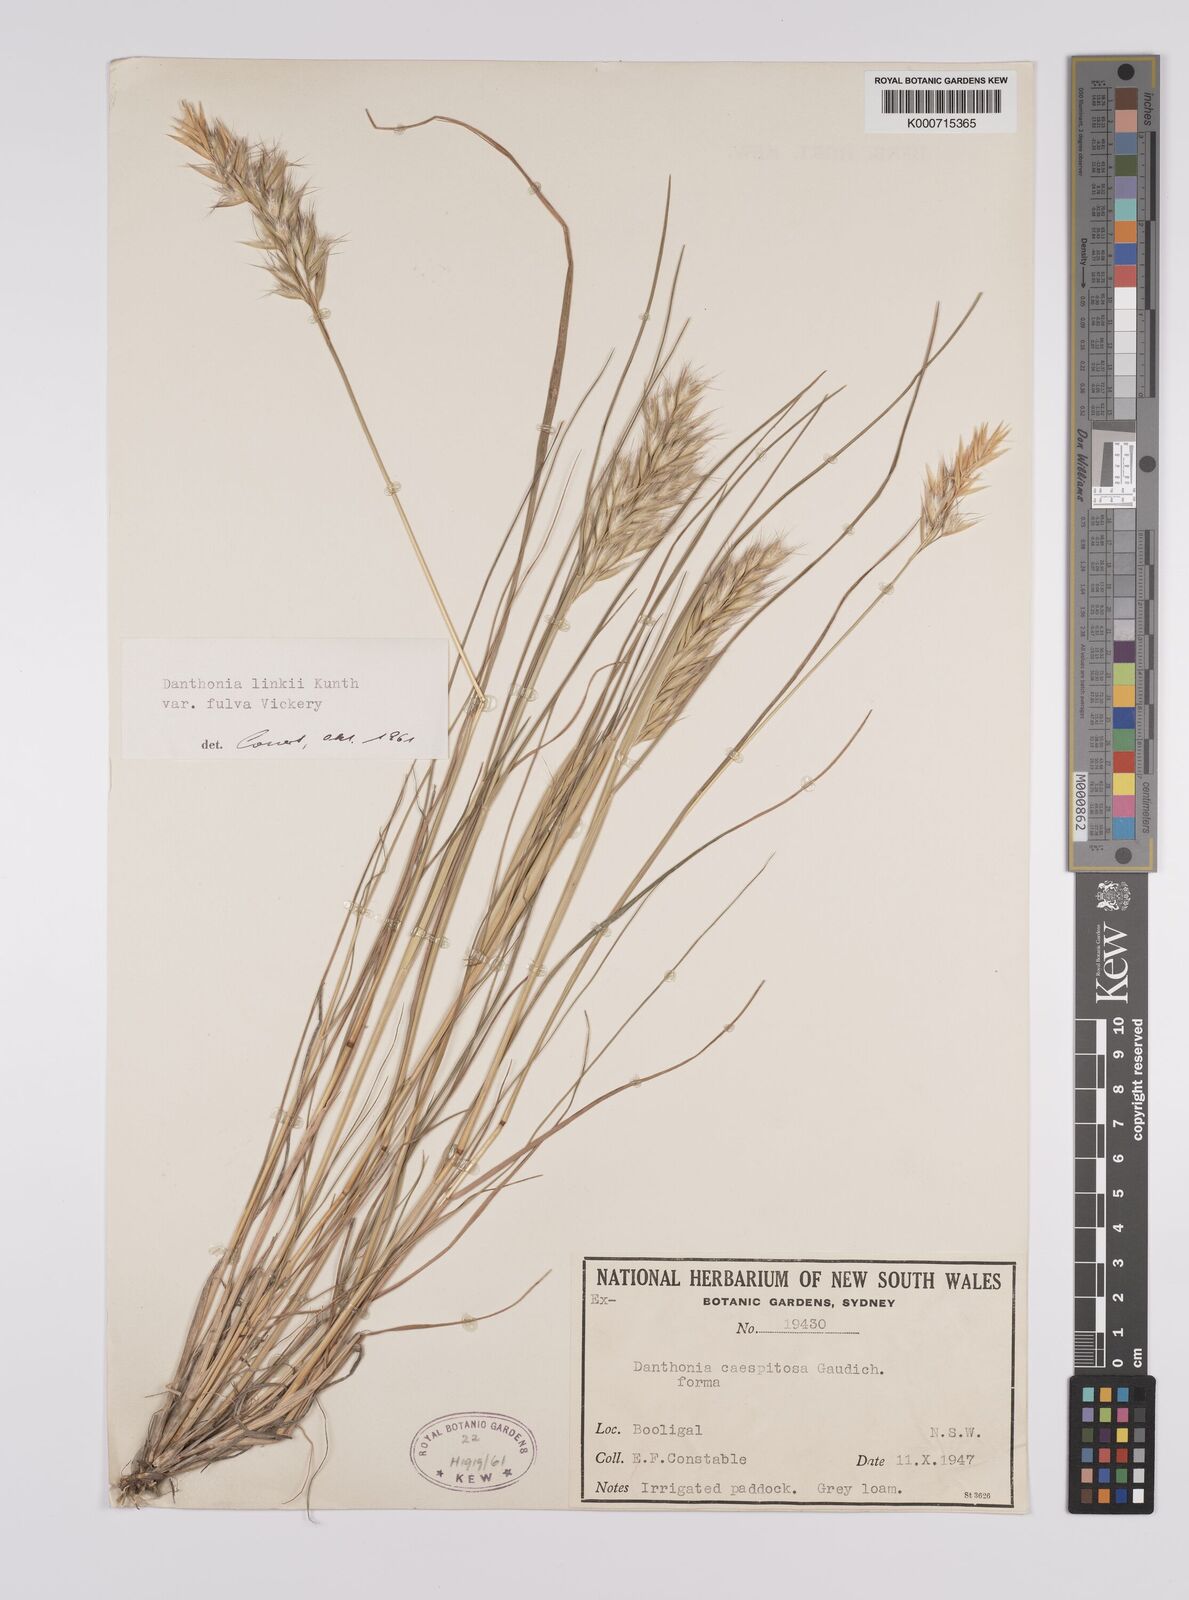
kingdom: Plantae
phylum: Tracheophyta
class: Liliopsida
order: Poales
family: Poaceae
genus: Rytidosperma
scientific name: Rytidosperma bipartitum
